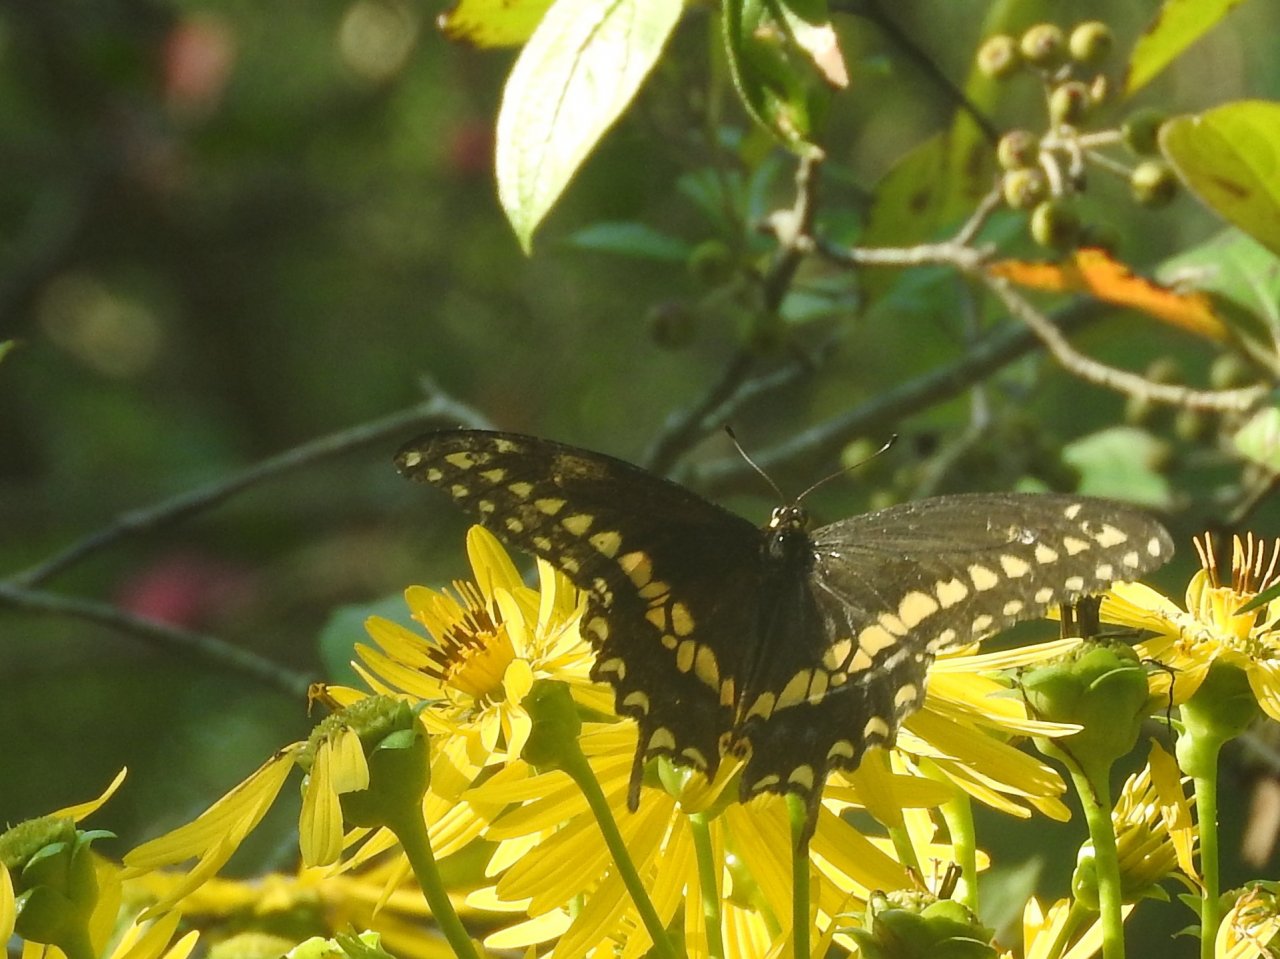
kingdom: Animalia
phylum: Arthropoda
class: Insecta
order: Lepidoptera
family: Papilionidae
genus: Papilio
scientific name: Papilio polyxenes
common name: Black Swallowtail
